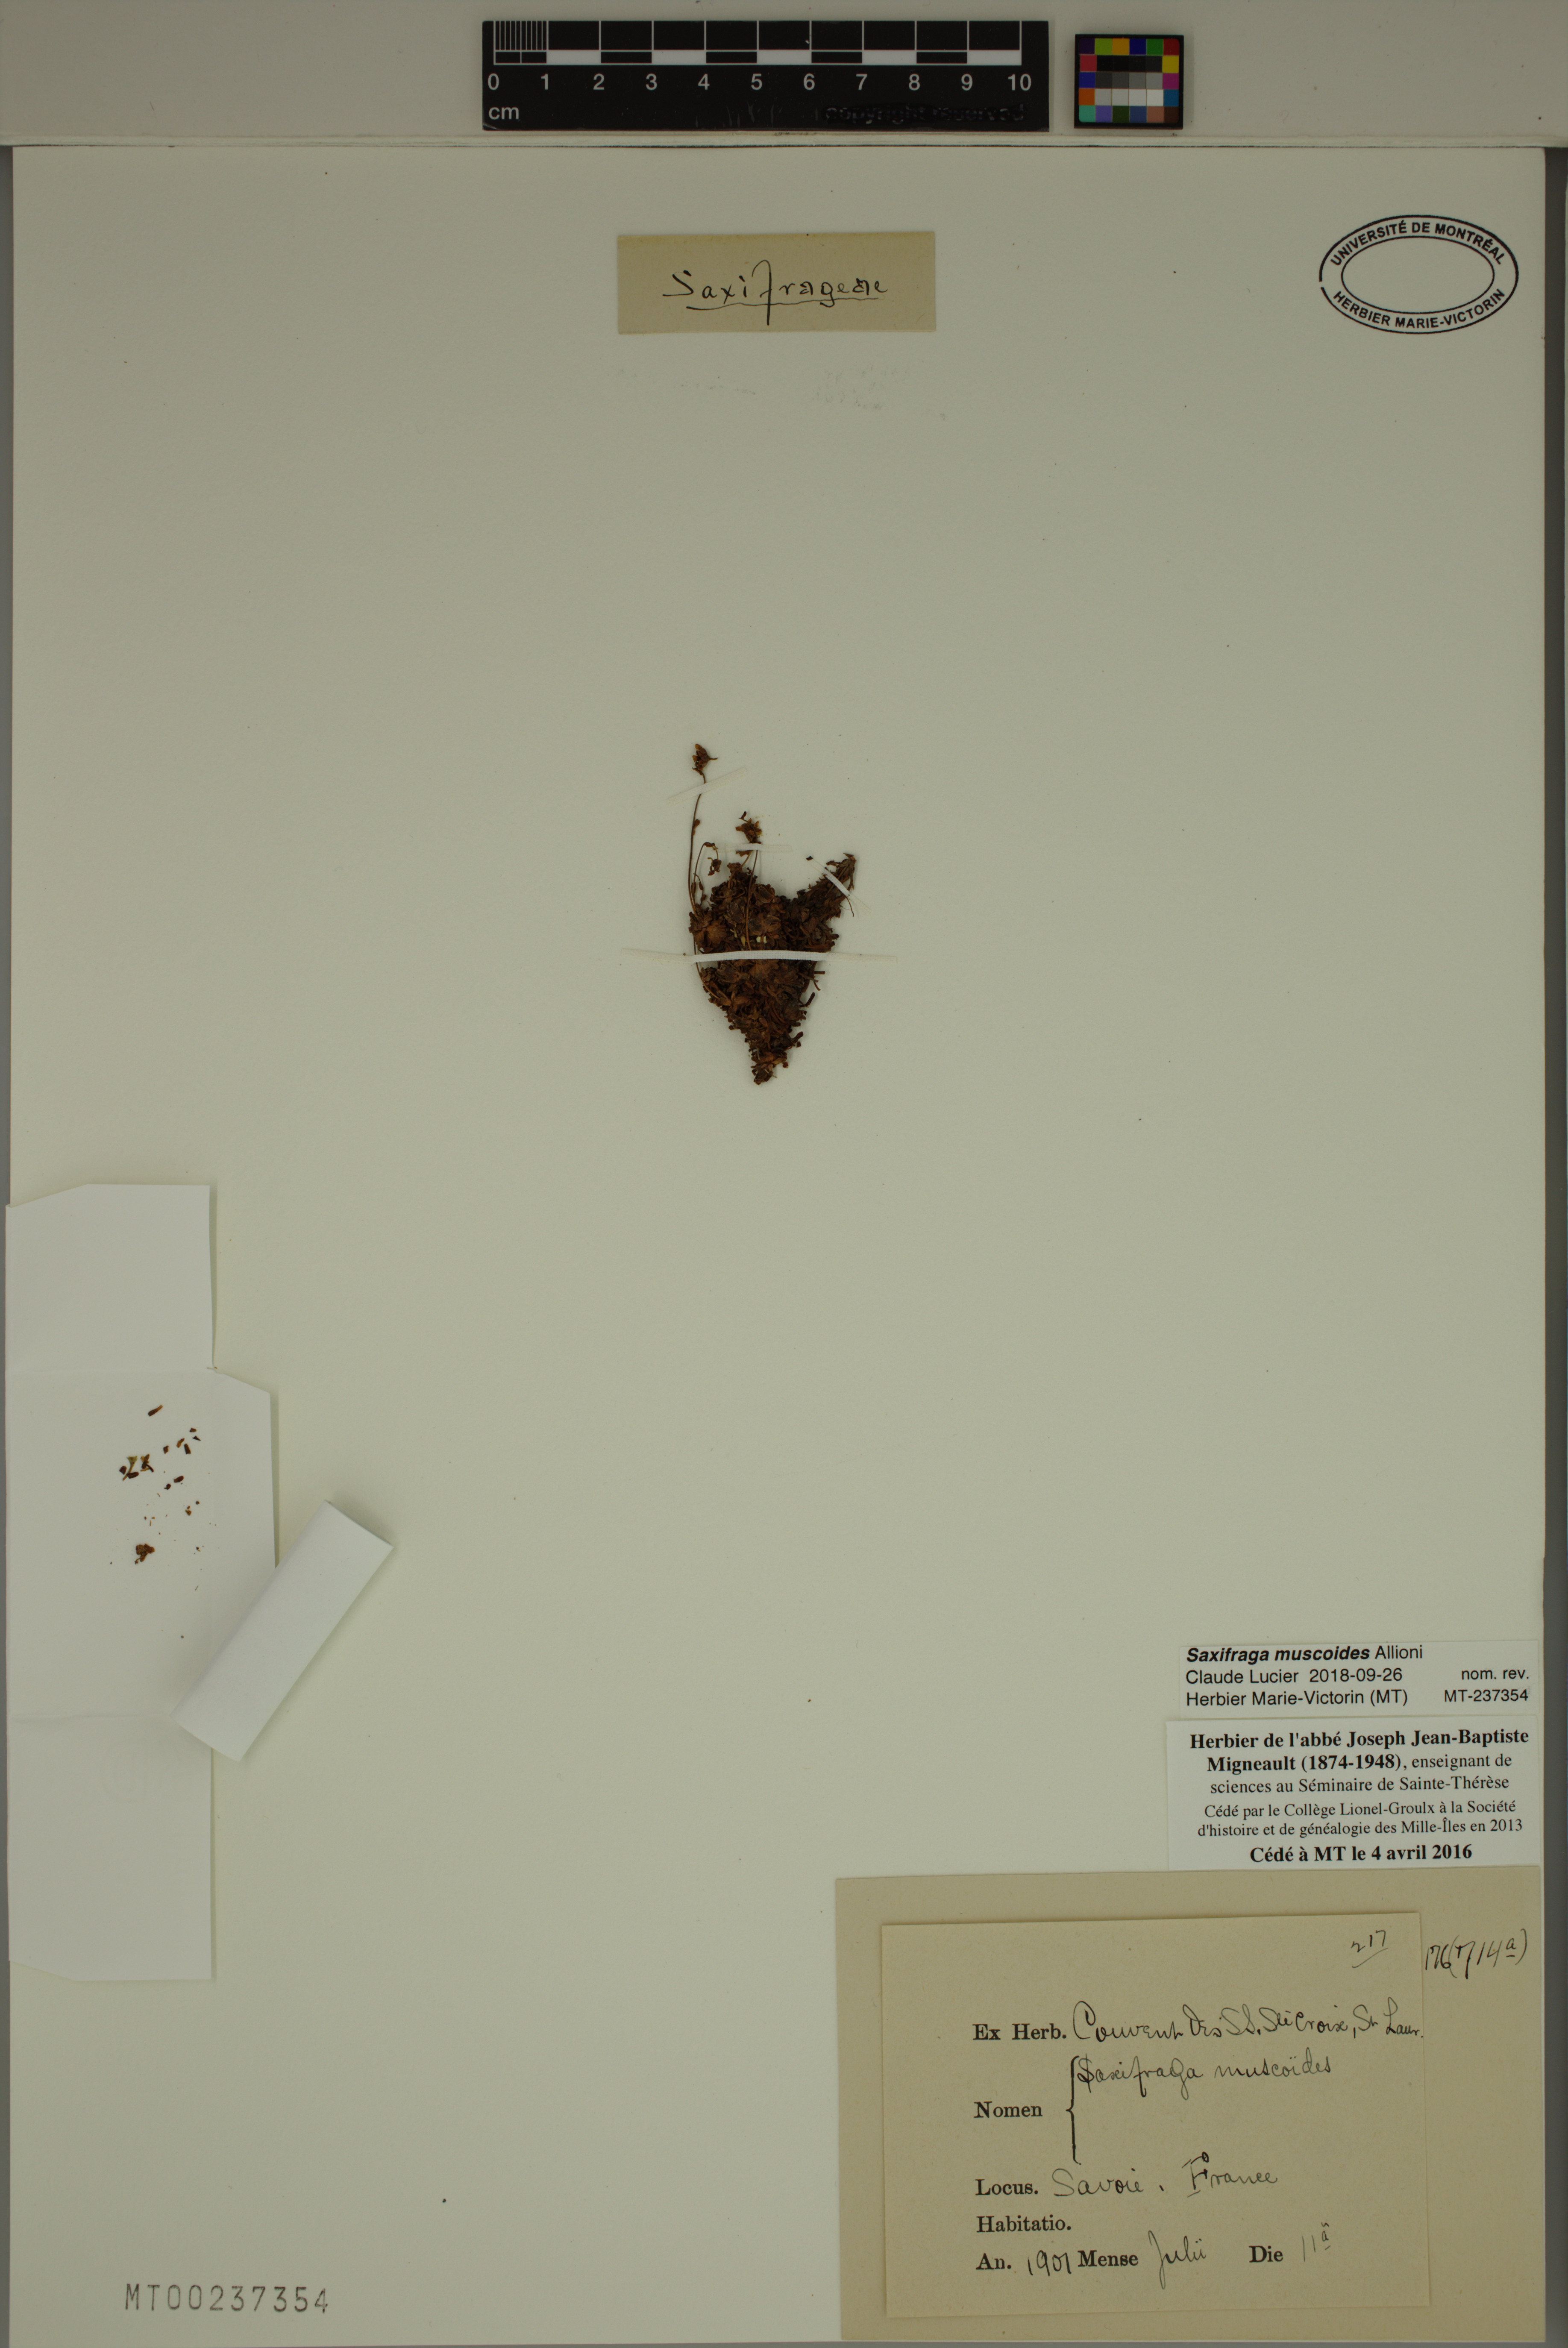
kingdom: Plantae
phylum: Tracheophyta
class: Magnoliopsida
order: Saxifragales
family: Saxifragaceae
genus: Saxifraga
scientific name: Saxifraga muscoides
